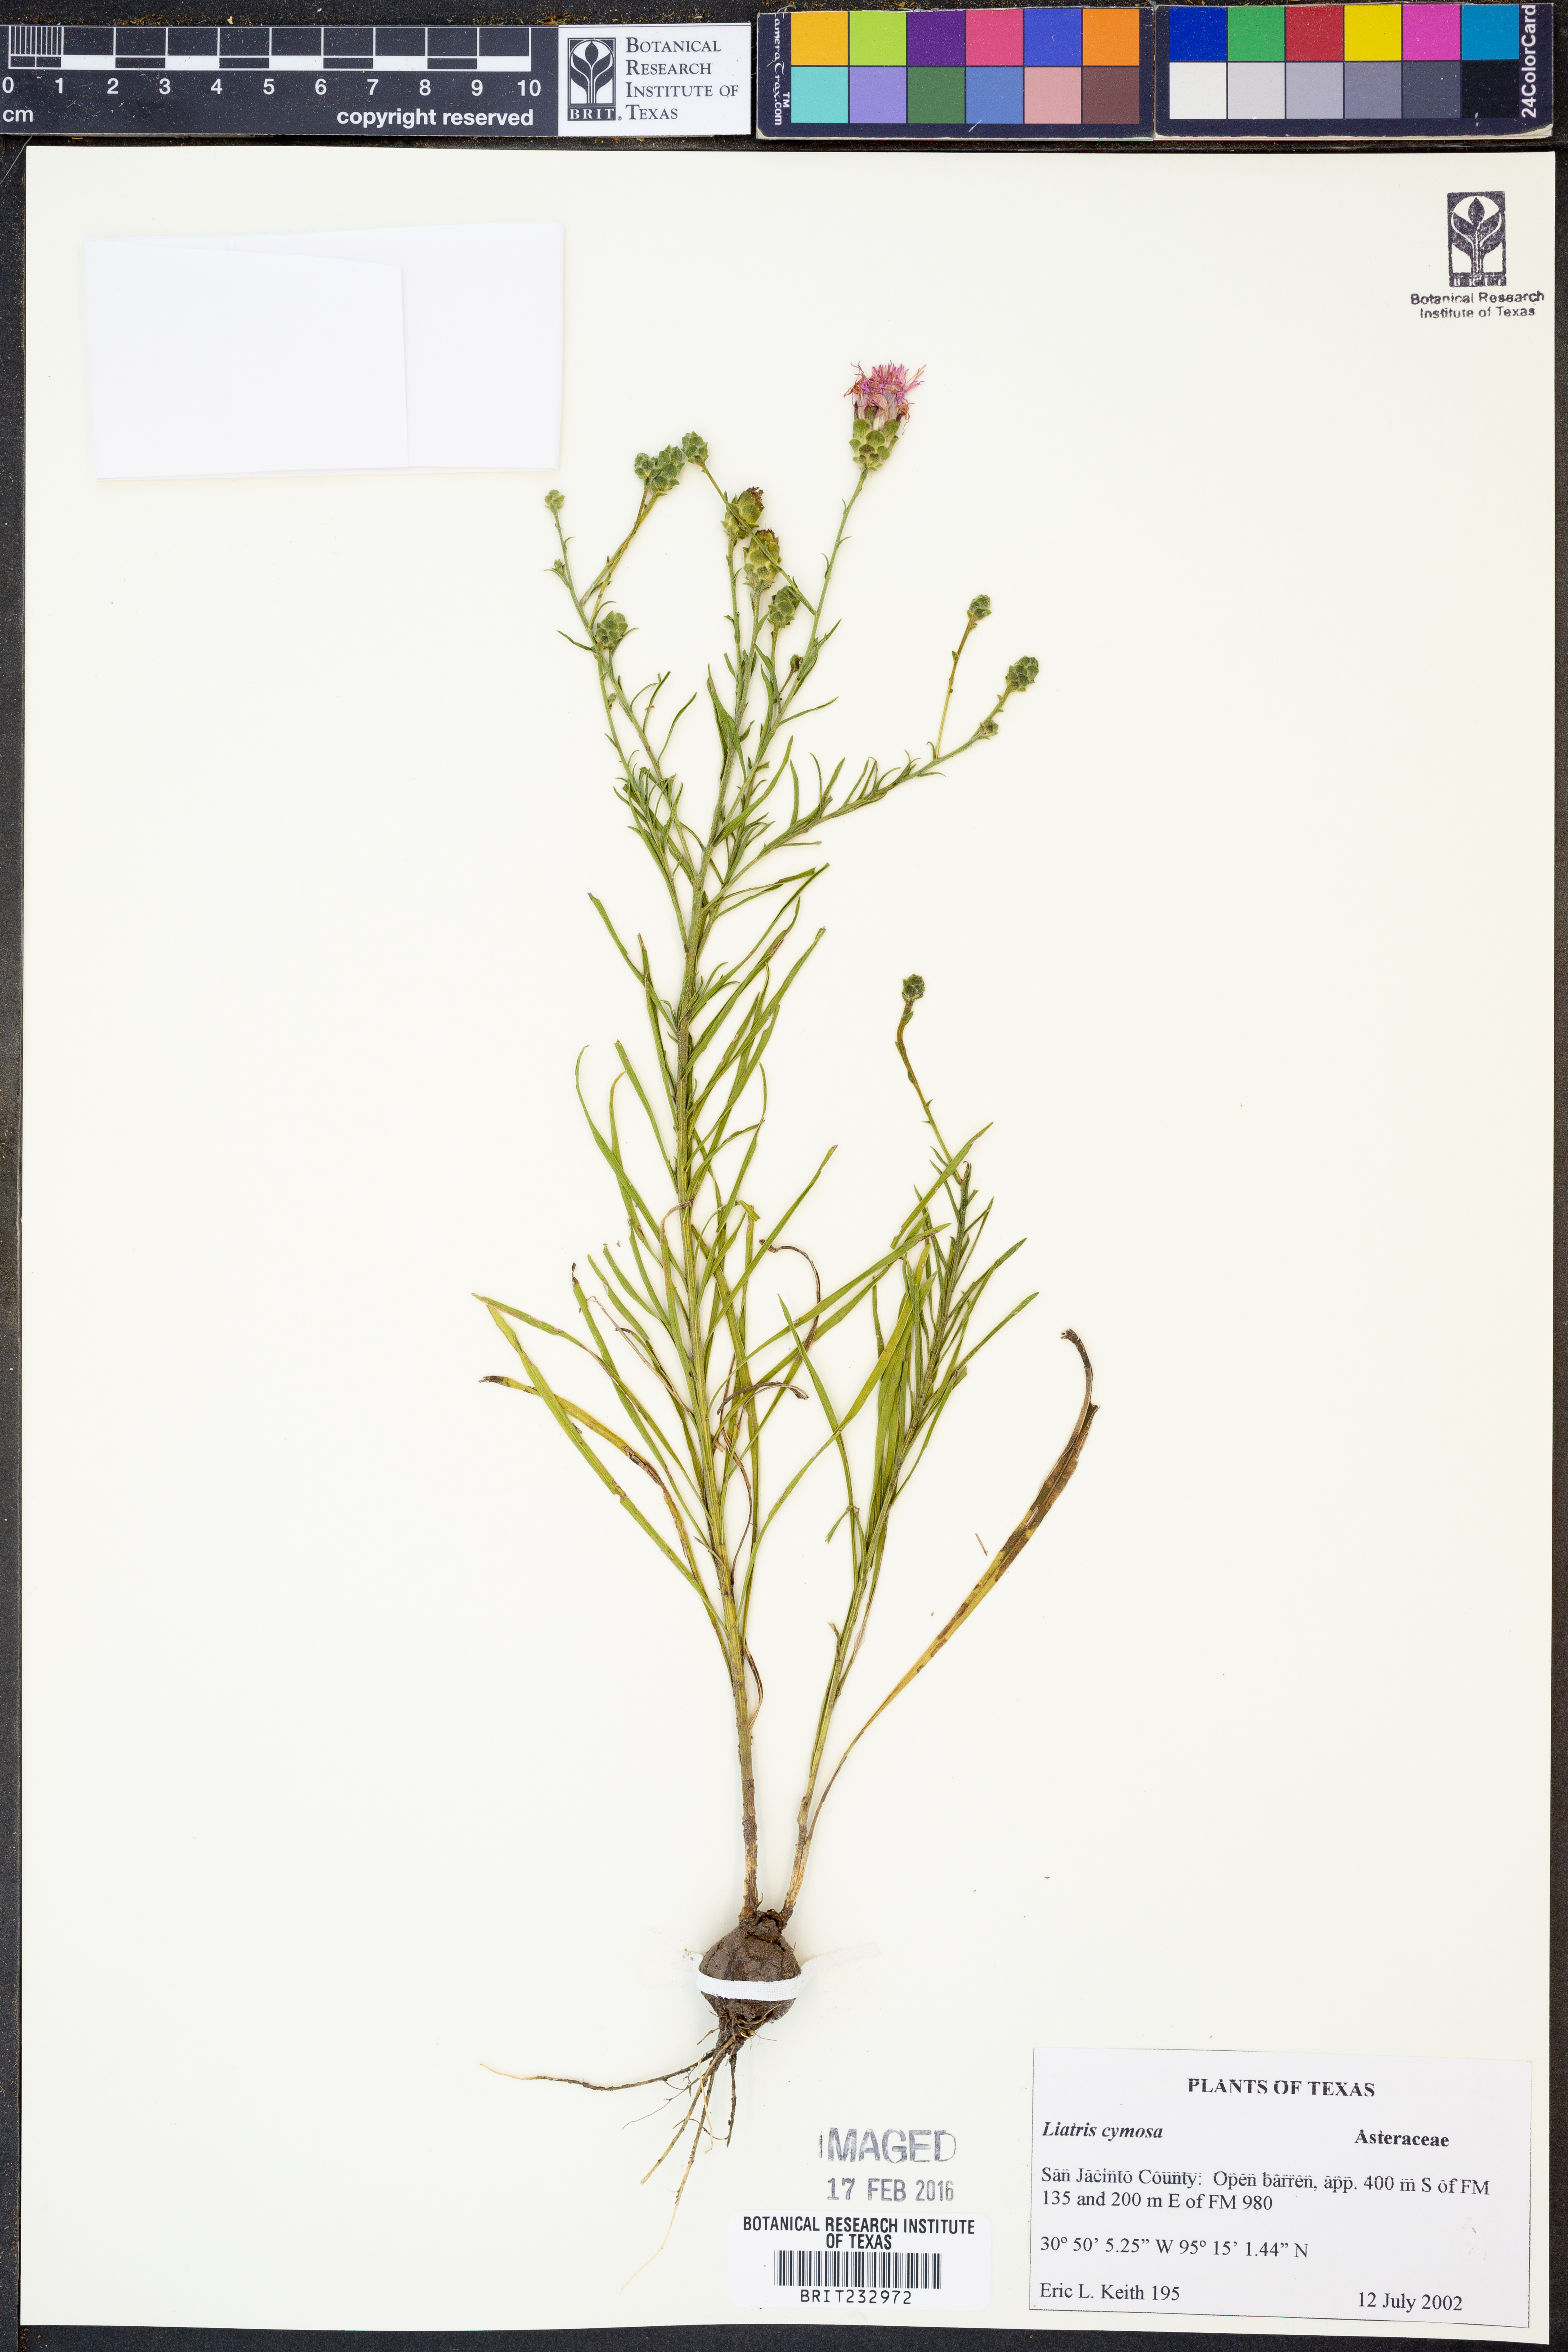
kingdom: Plantae
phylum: Tracheophyta
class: Magnoliopsida
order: Asterales
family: Asteraceae
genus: Liatris
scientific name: Liatris cymosa
